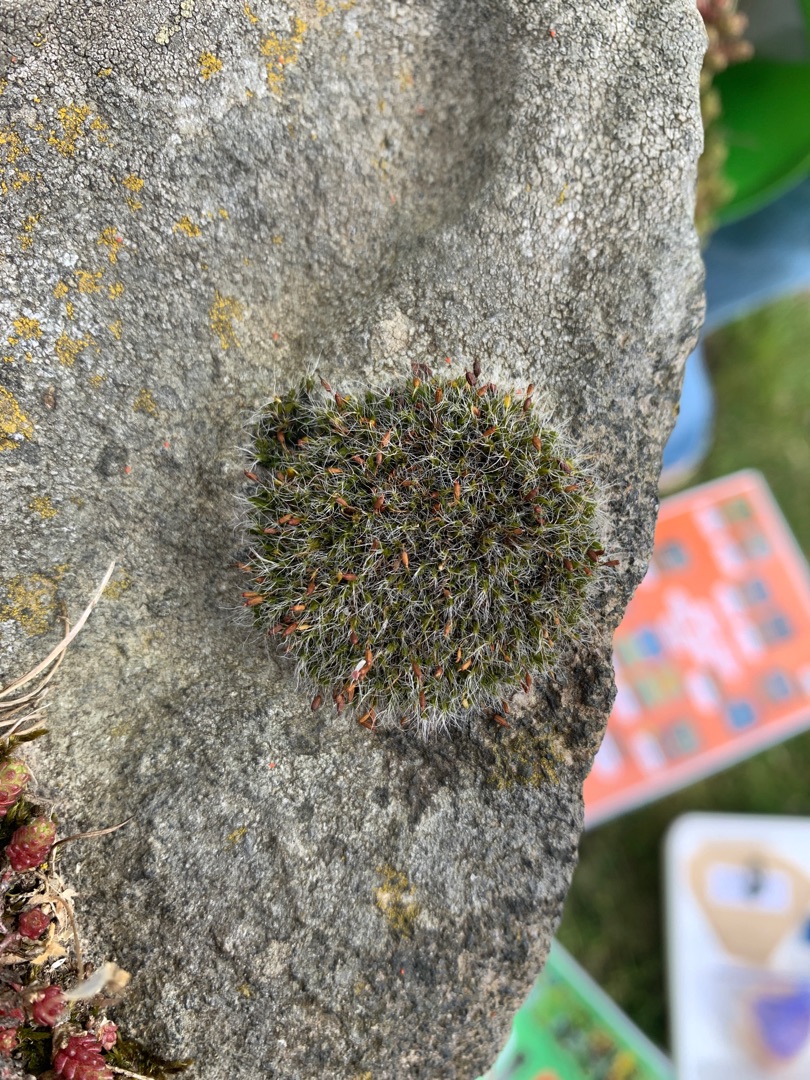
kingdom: Plantae
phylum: Bryophyta
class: Bryopsida
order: Grimmiales
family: Grimmiaceae
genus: Grimmia
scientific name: Grimmia pulvinata
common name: Pude-gråmos
